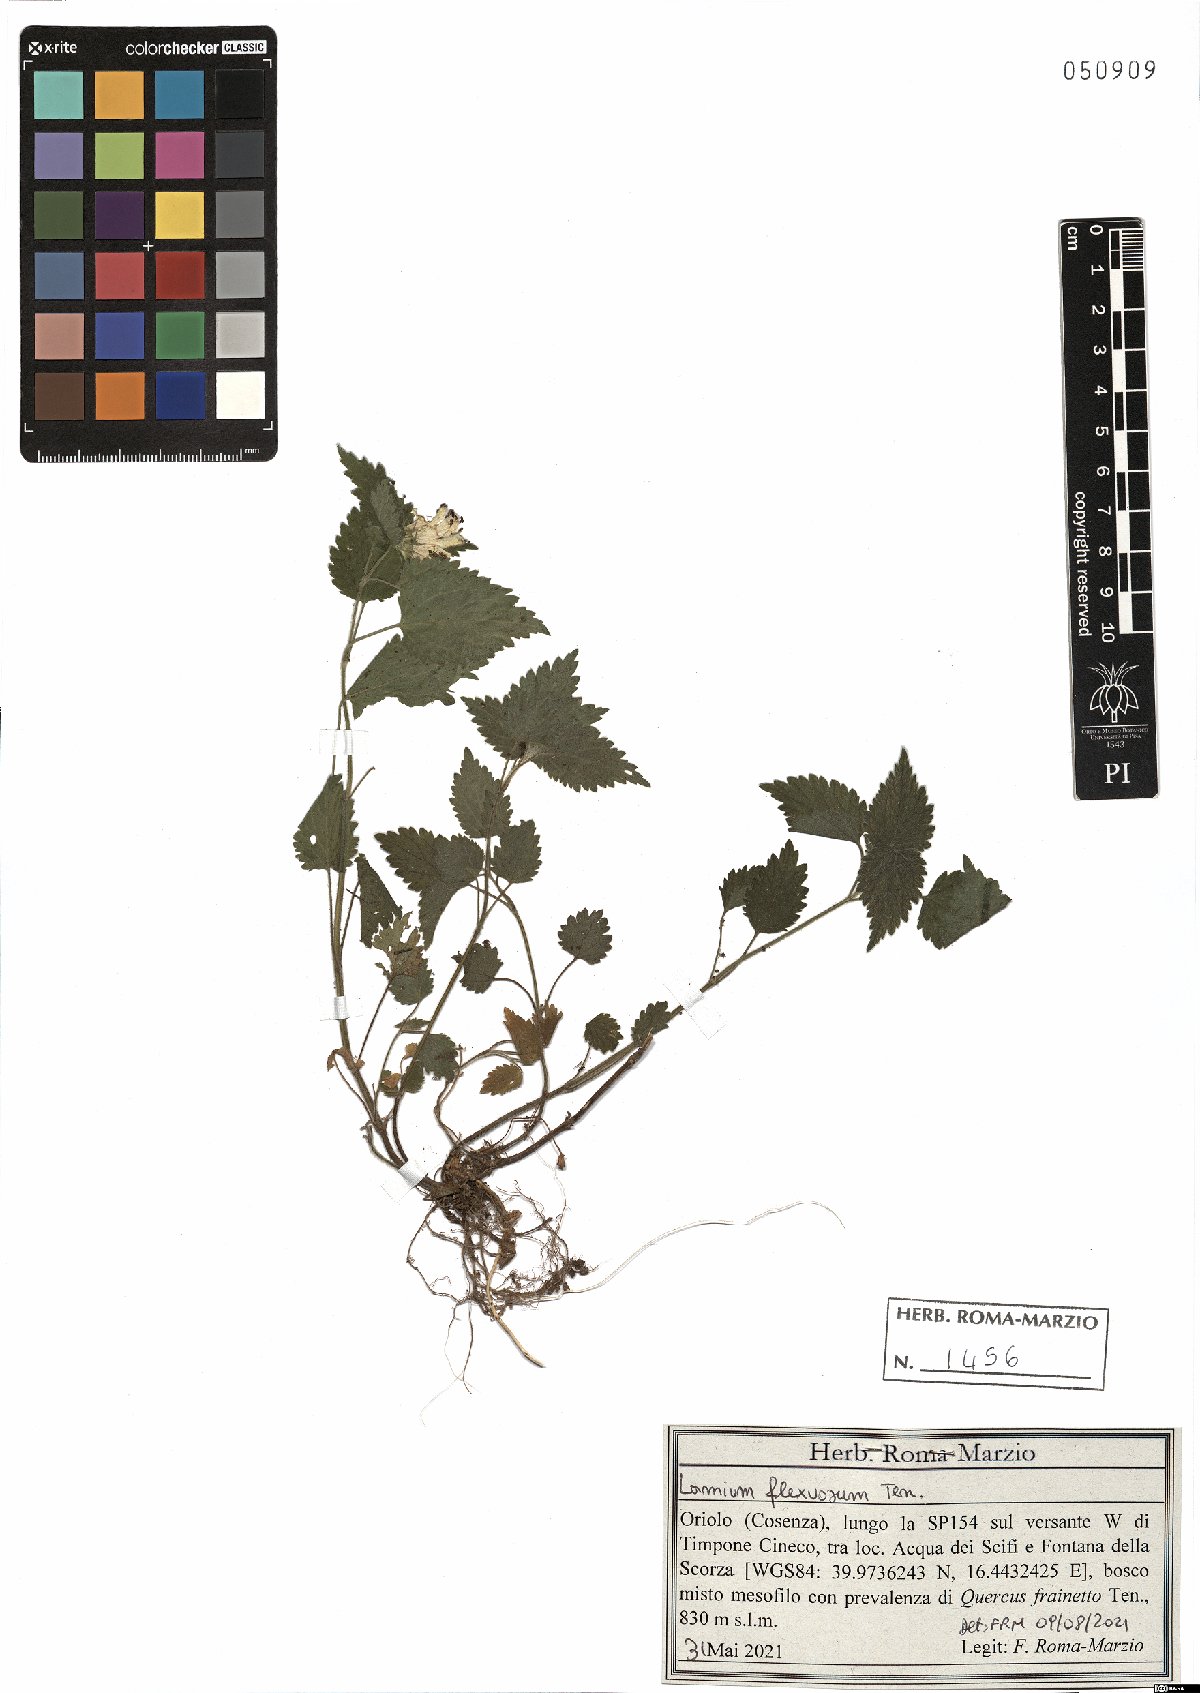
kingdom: Plantae
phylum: Tracheophyta
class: Magnoliopsida
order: Lamiales
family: Lamiaceae
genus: Lamium
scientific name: Lamium flexuosum
